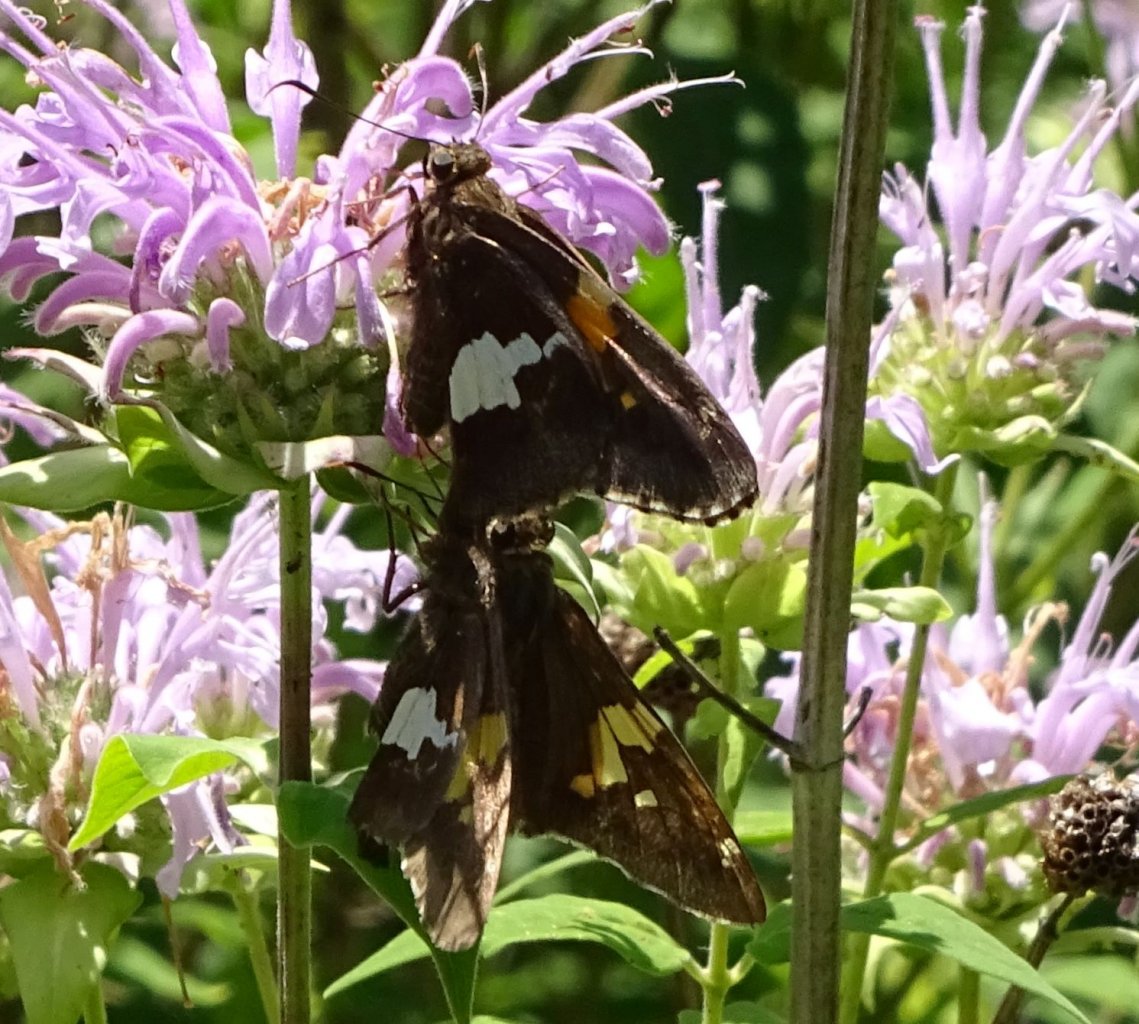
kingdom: Animalia
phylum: Arthropoda
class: Insecta
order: Lepidoptera
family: Hesperiidae
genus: Epargyreus
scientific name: Epargyreus clarus
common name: Silver-spotted Skipper
